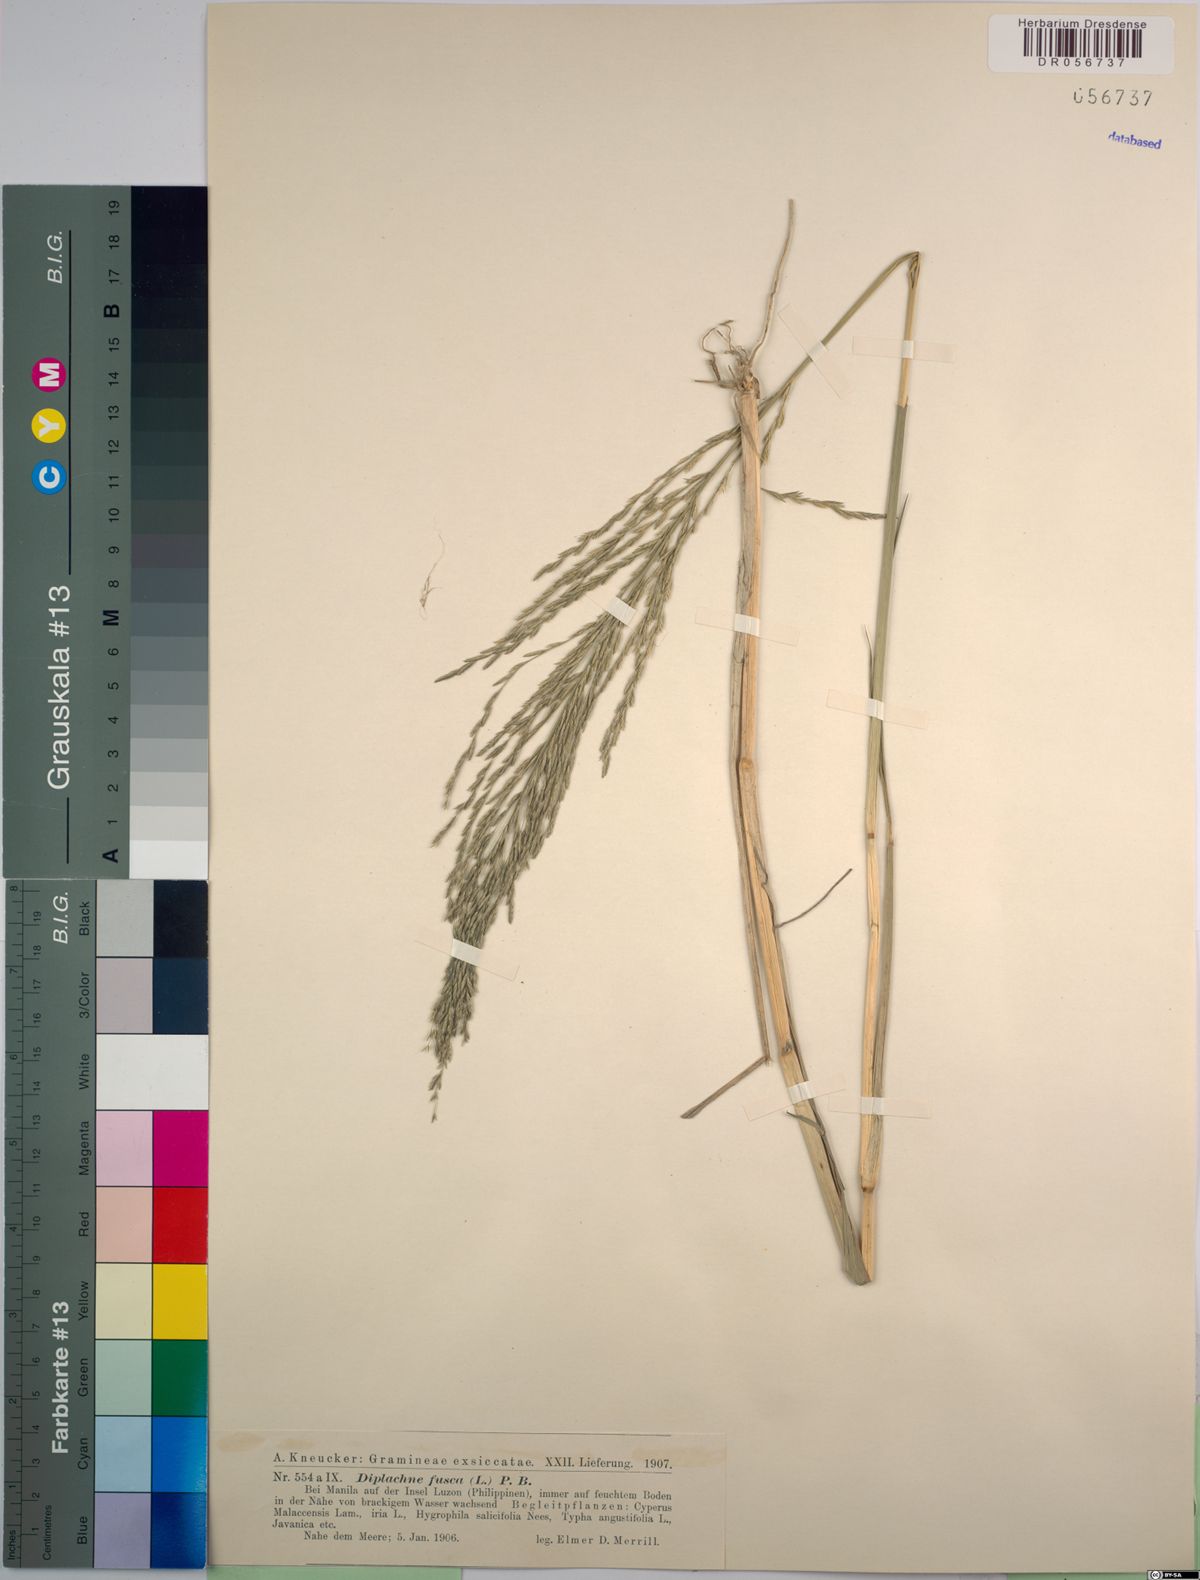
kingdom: Plantae
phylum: Tracheophyta
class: Liliopsida
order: Poales
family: Poaceae
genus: Diplachne
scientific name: Diplachne fusca
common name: Brown beetle grass
